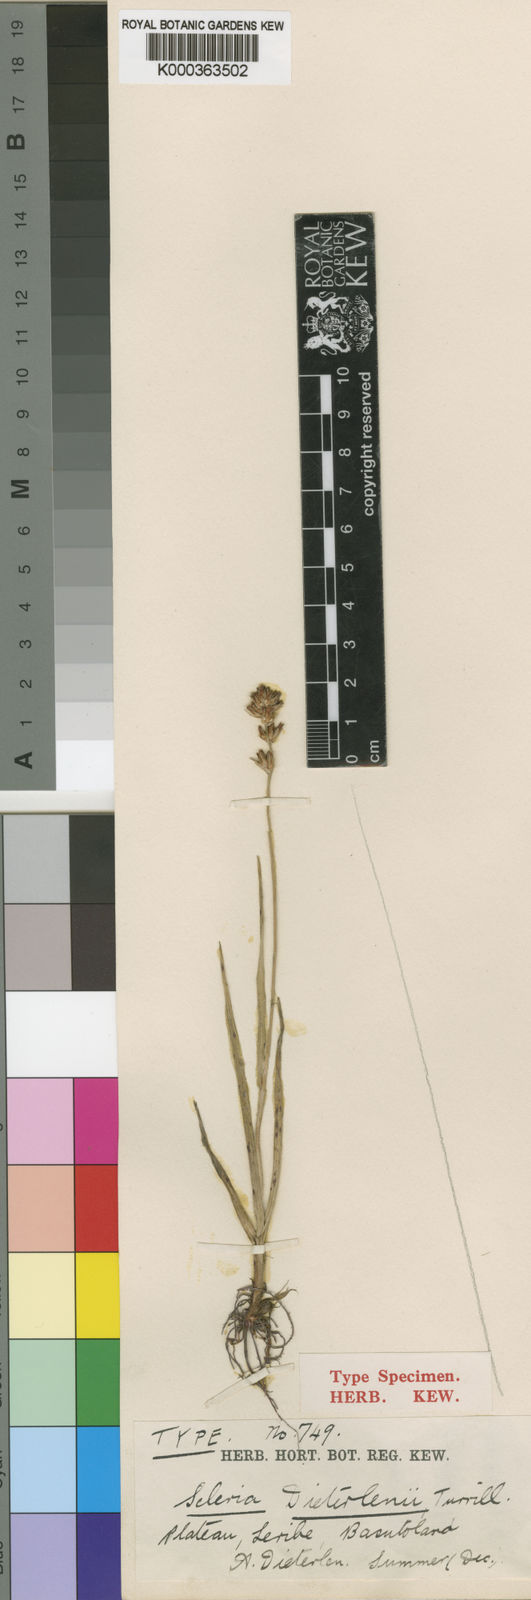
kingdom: Plantae
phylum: Tracheophyta
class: Liliopsida
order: Poales
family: Cyperaceae
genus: Scleria
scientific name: Scleria flexuosa
